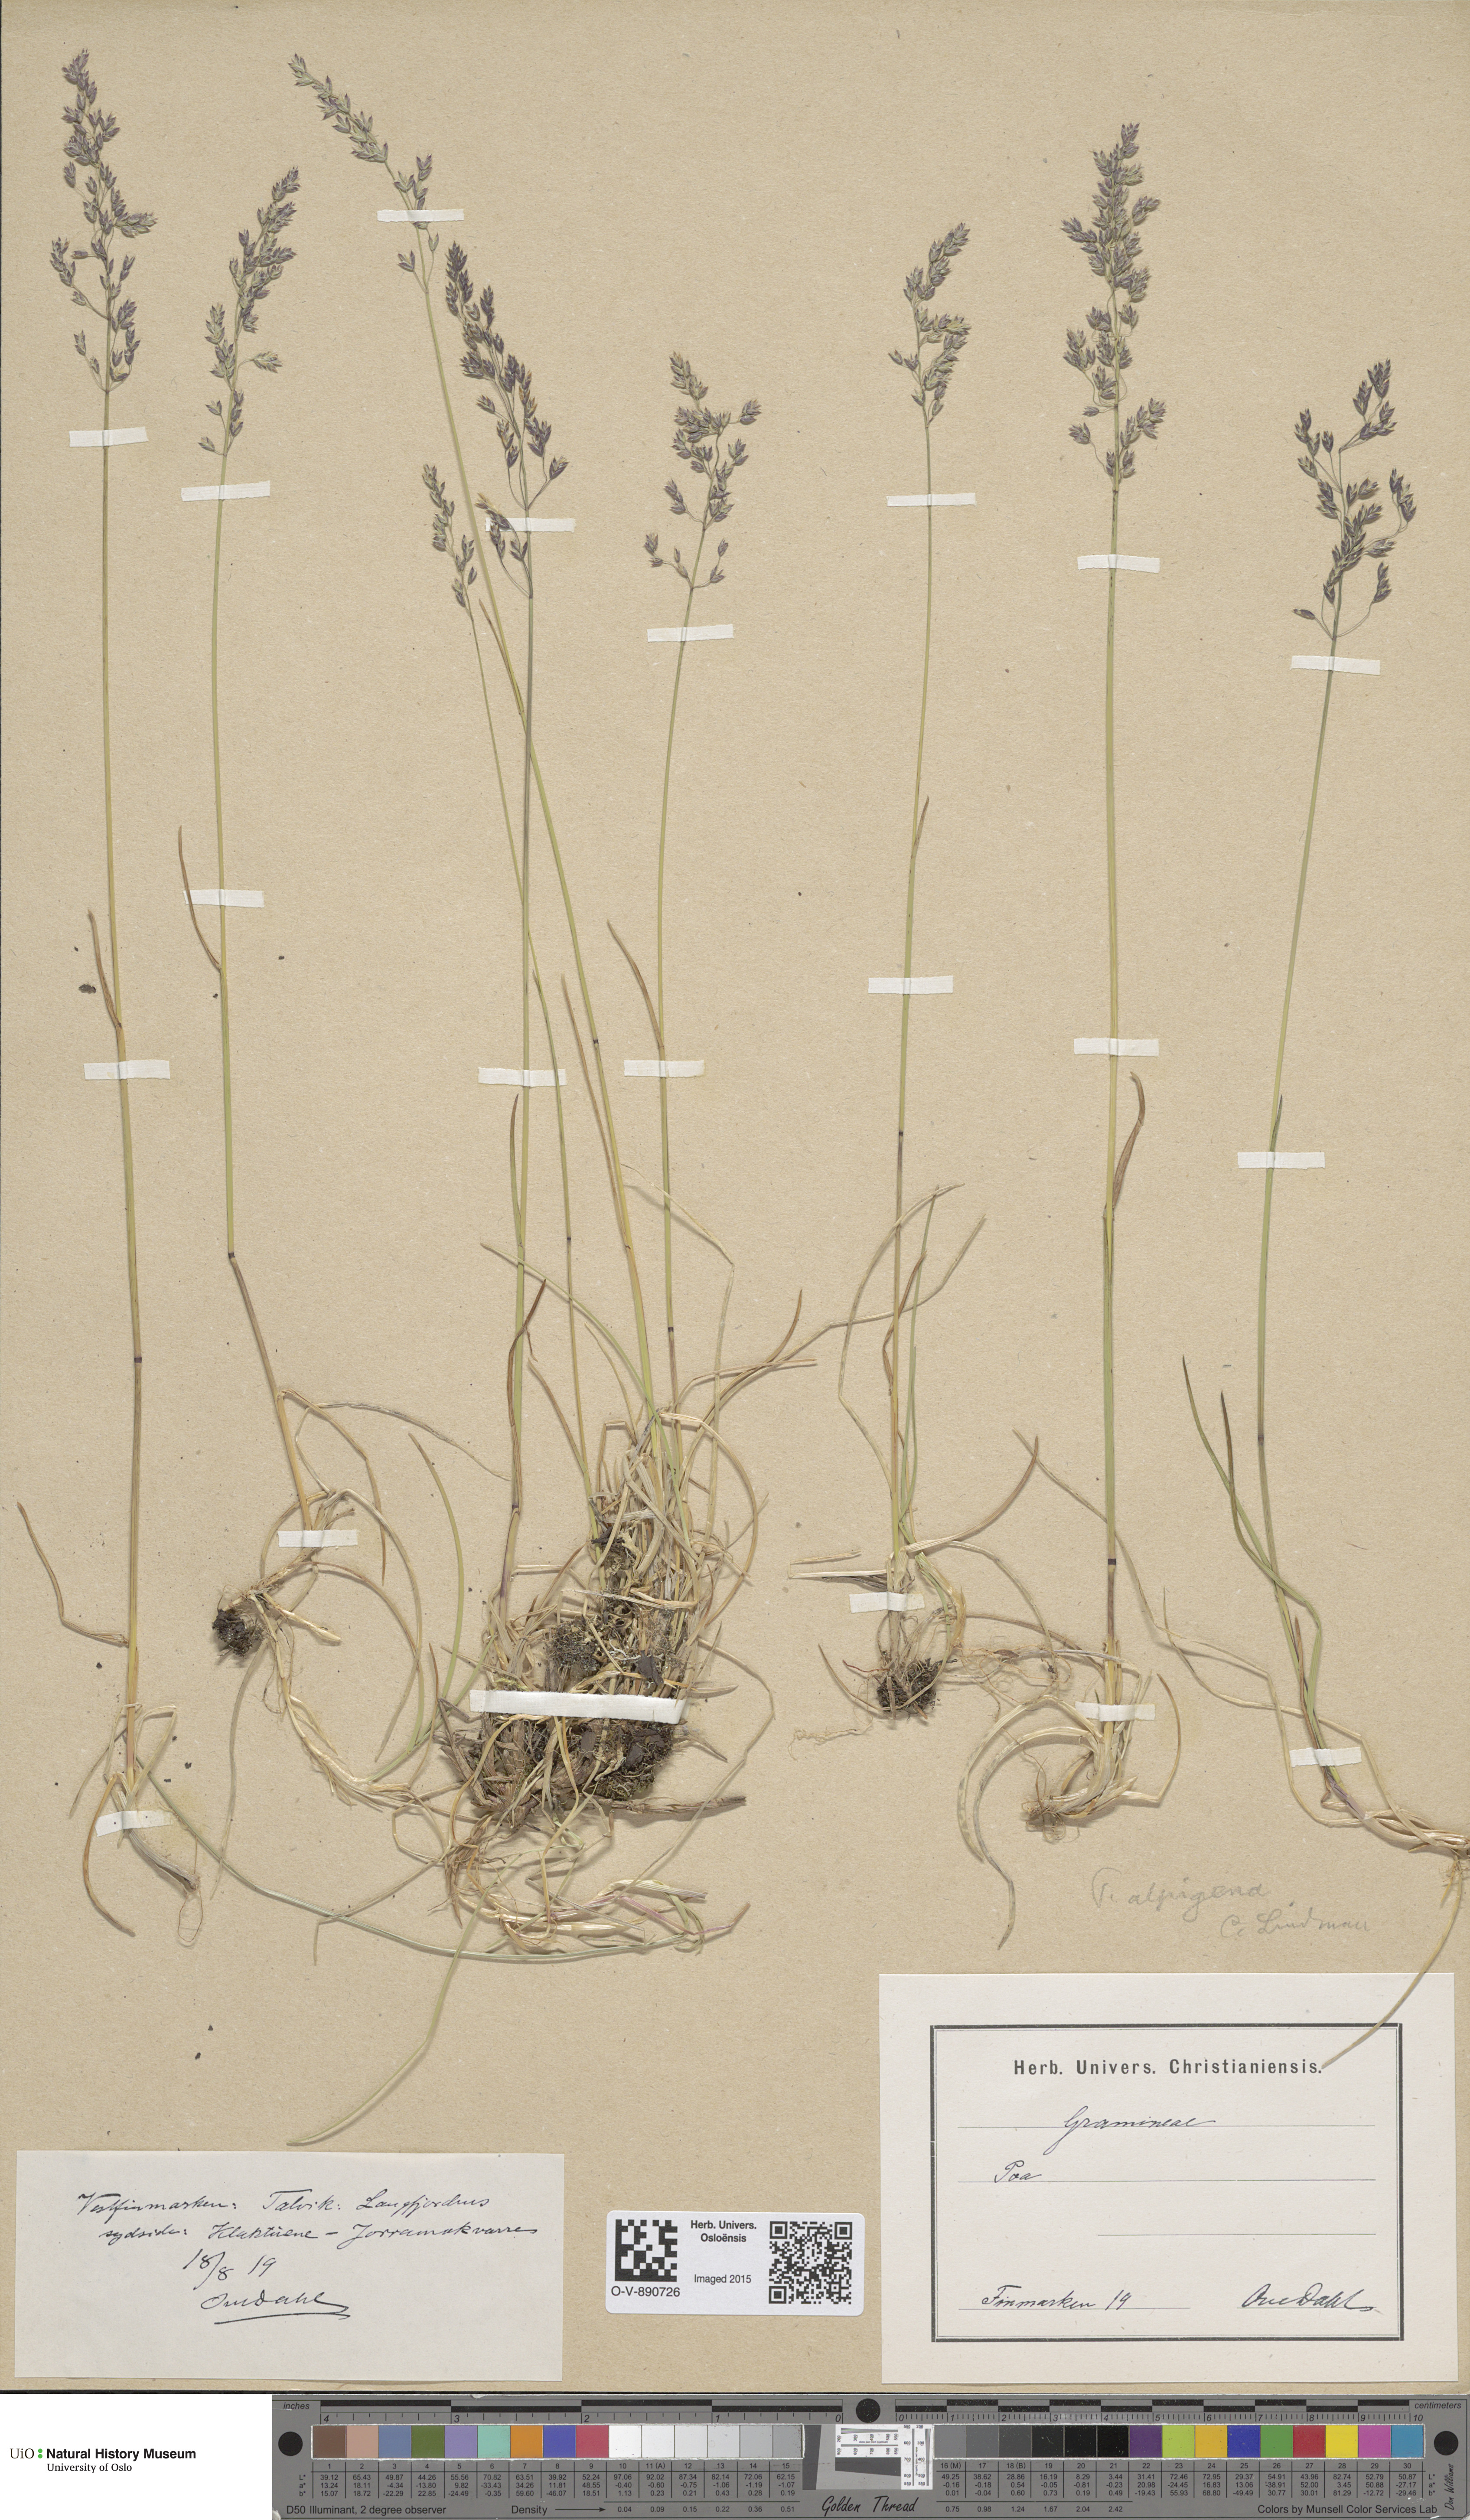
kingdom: Plantae
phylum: Tracheophyta
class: Liliopsida
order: Poales
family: Poaceae
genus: Poa
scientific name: Poa alpigena
